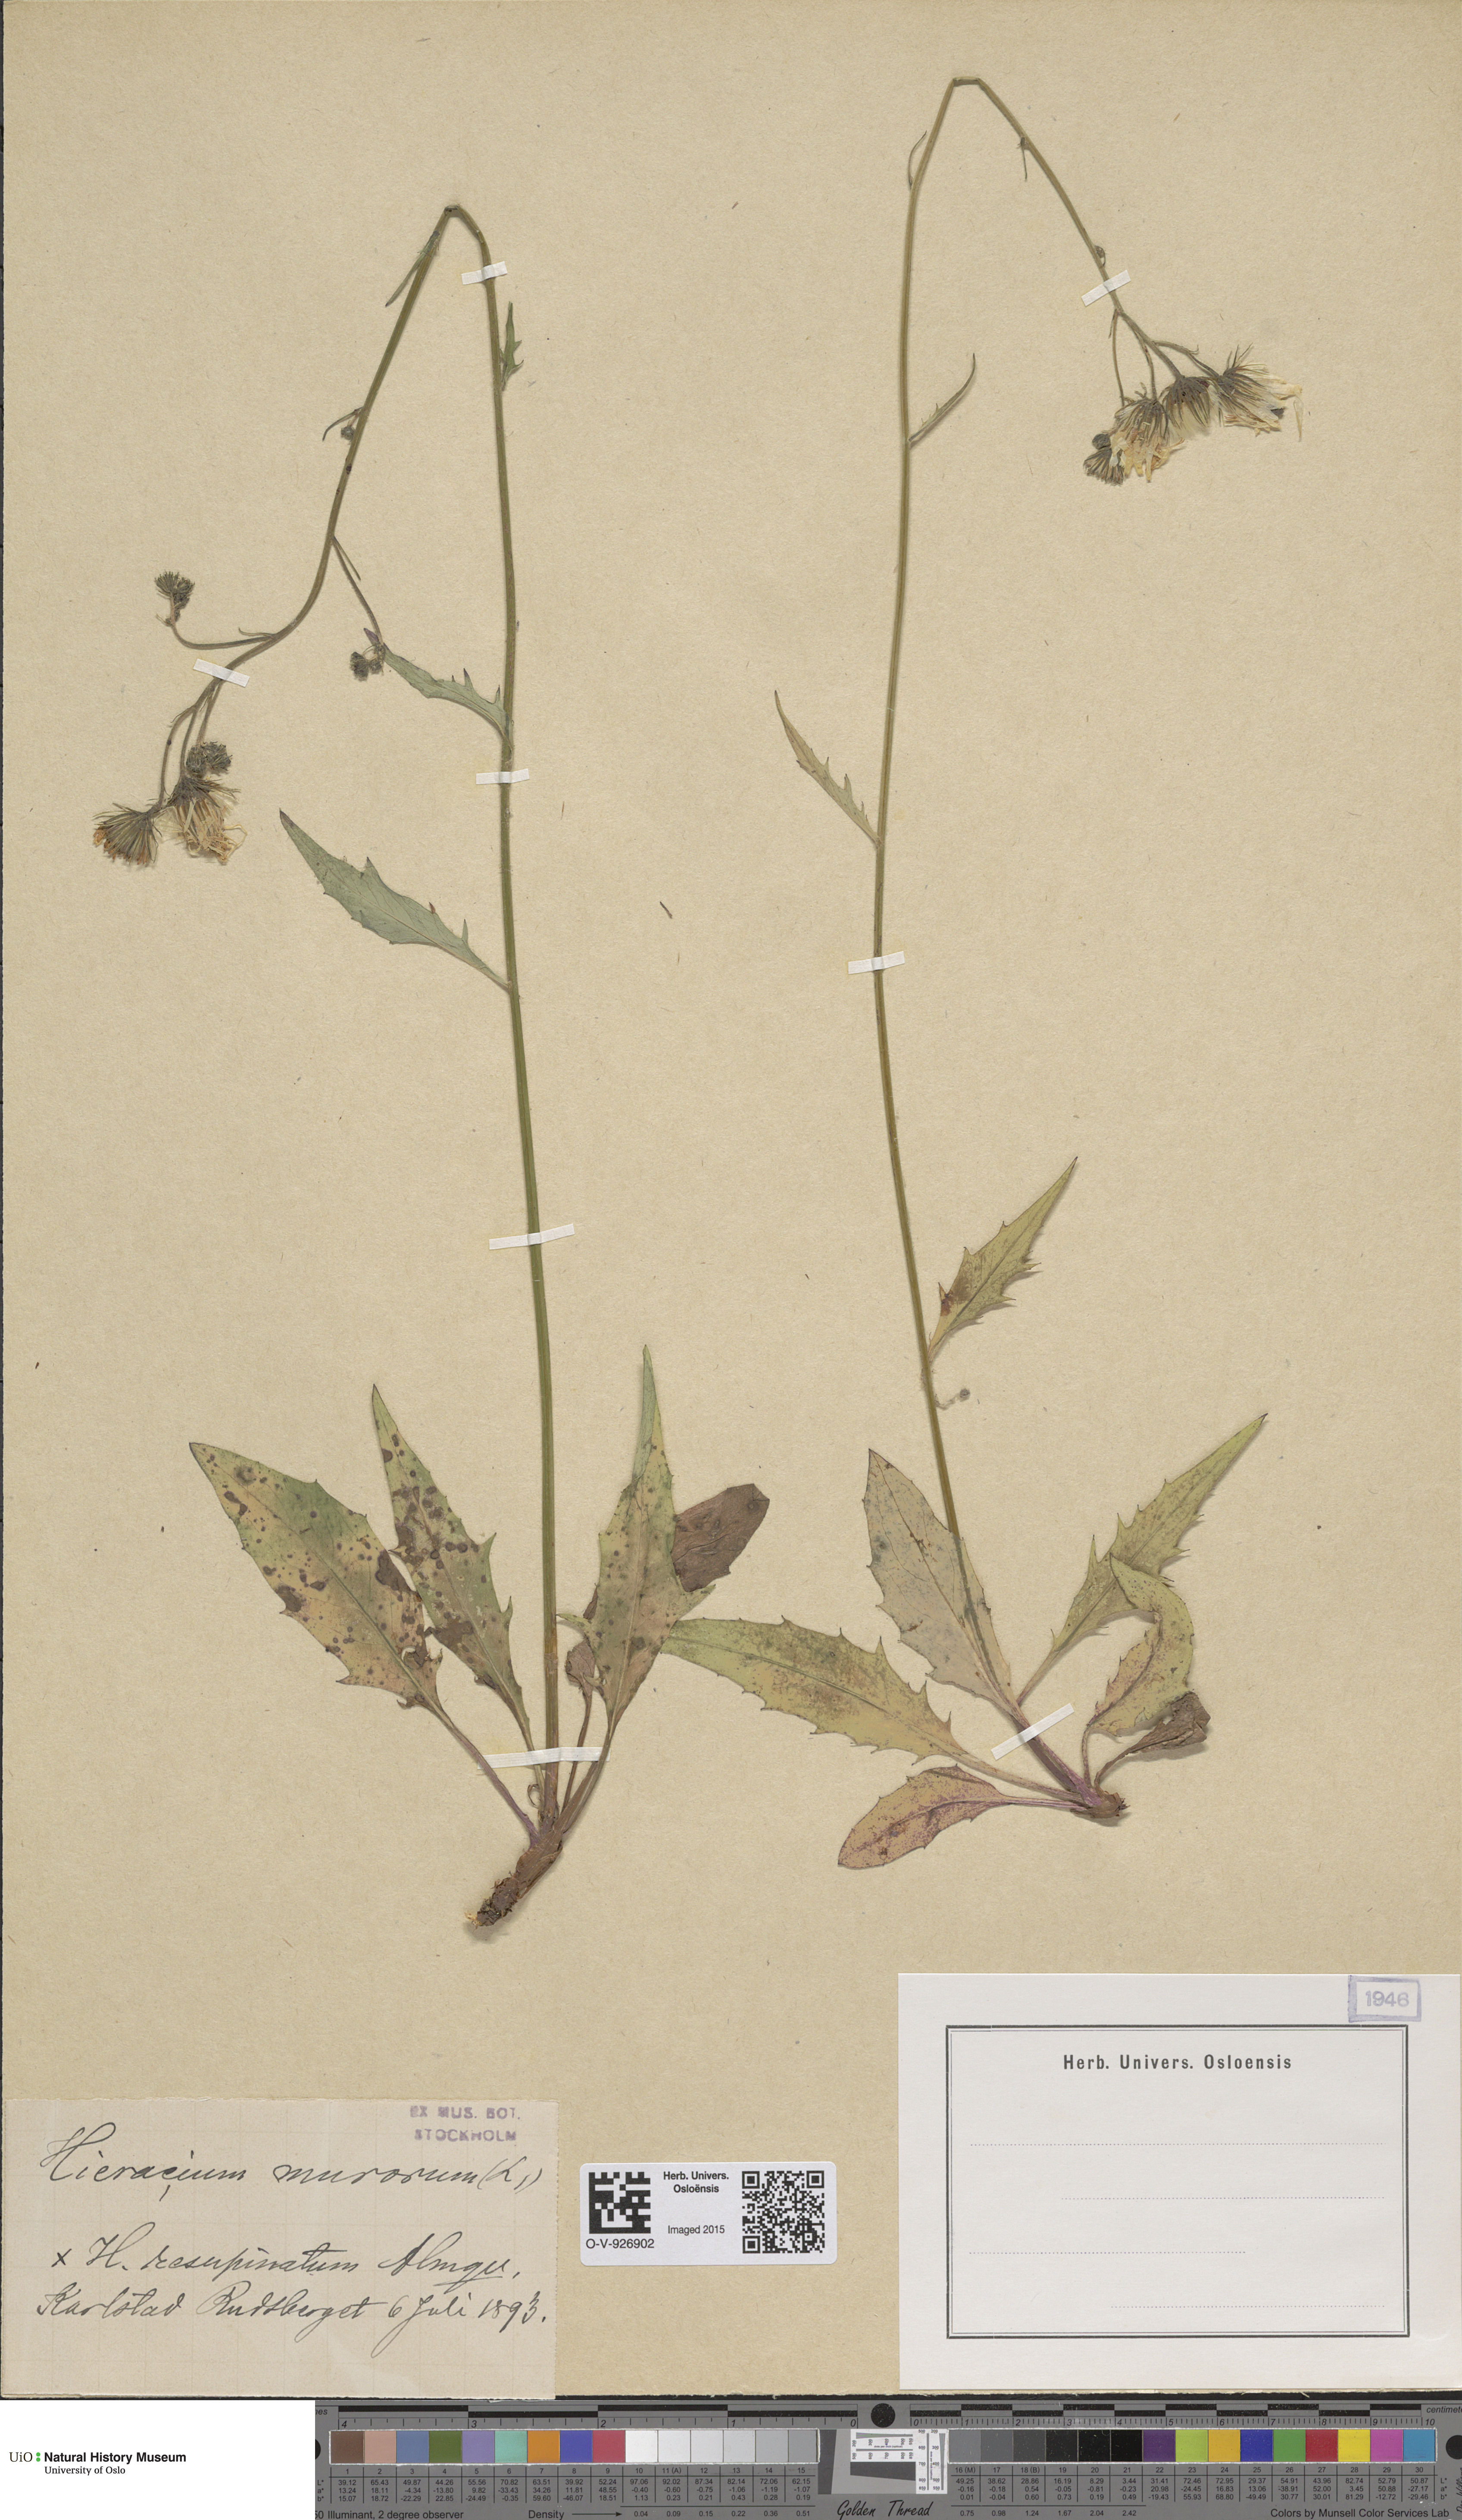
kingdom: Plantae
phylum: Tracheophyta
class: Magnoliopsida
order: Asterales
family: Asteraceae
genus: Hieracium
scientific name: Hieracium resupinatum
